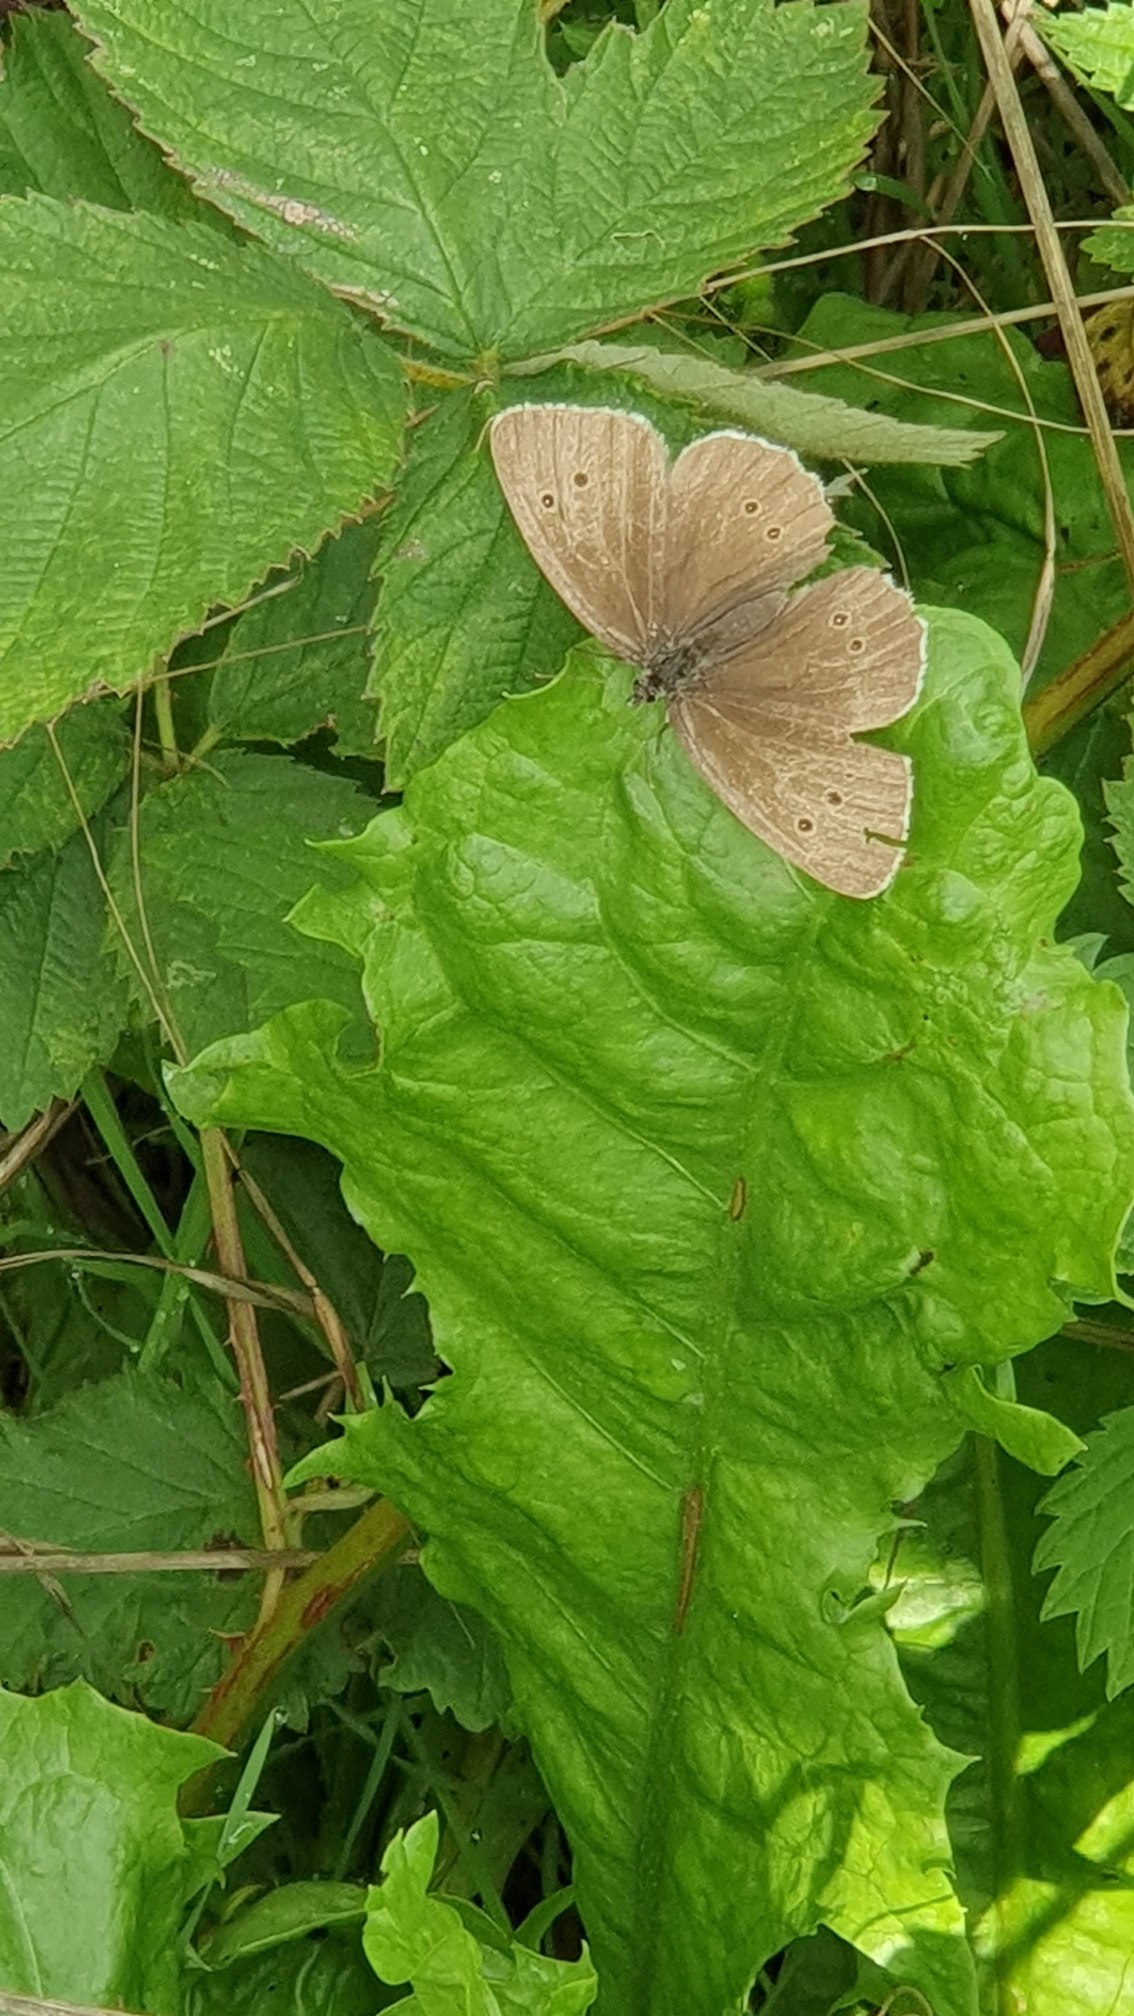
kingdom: Animalia
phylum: Arthropoda
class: Insecta
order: Lepidoptera
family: Nymphalidae
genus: Aphantopus
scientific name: Aphantopus hyperantus
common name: Engrandøje
